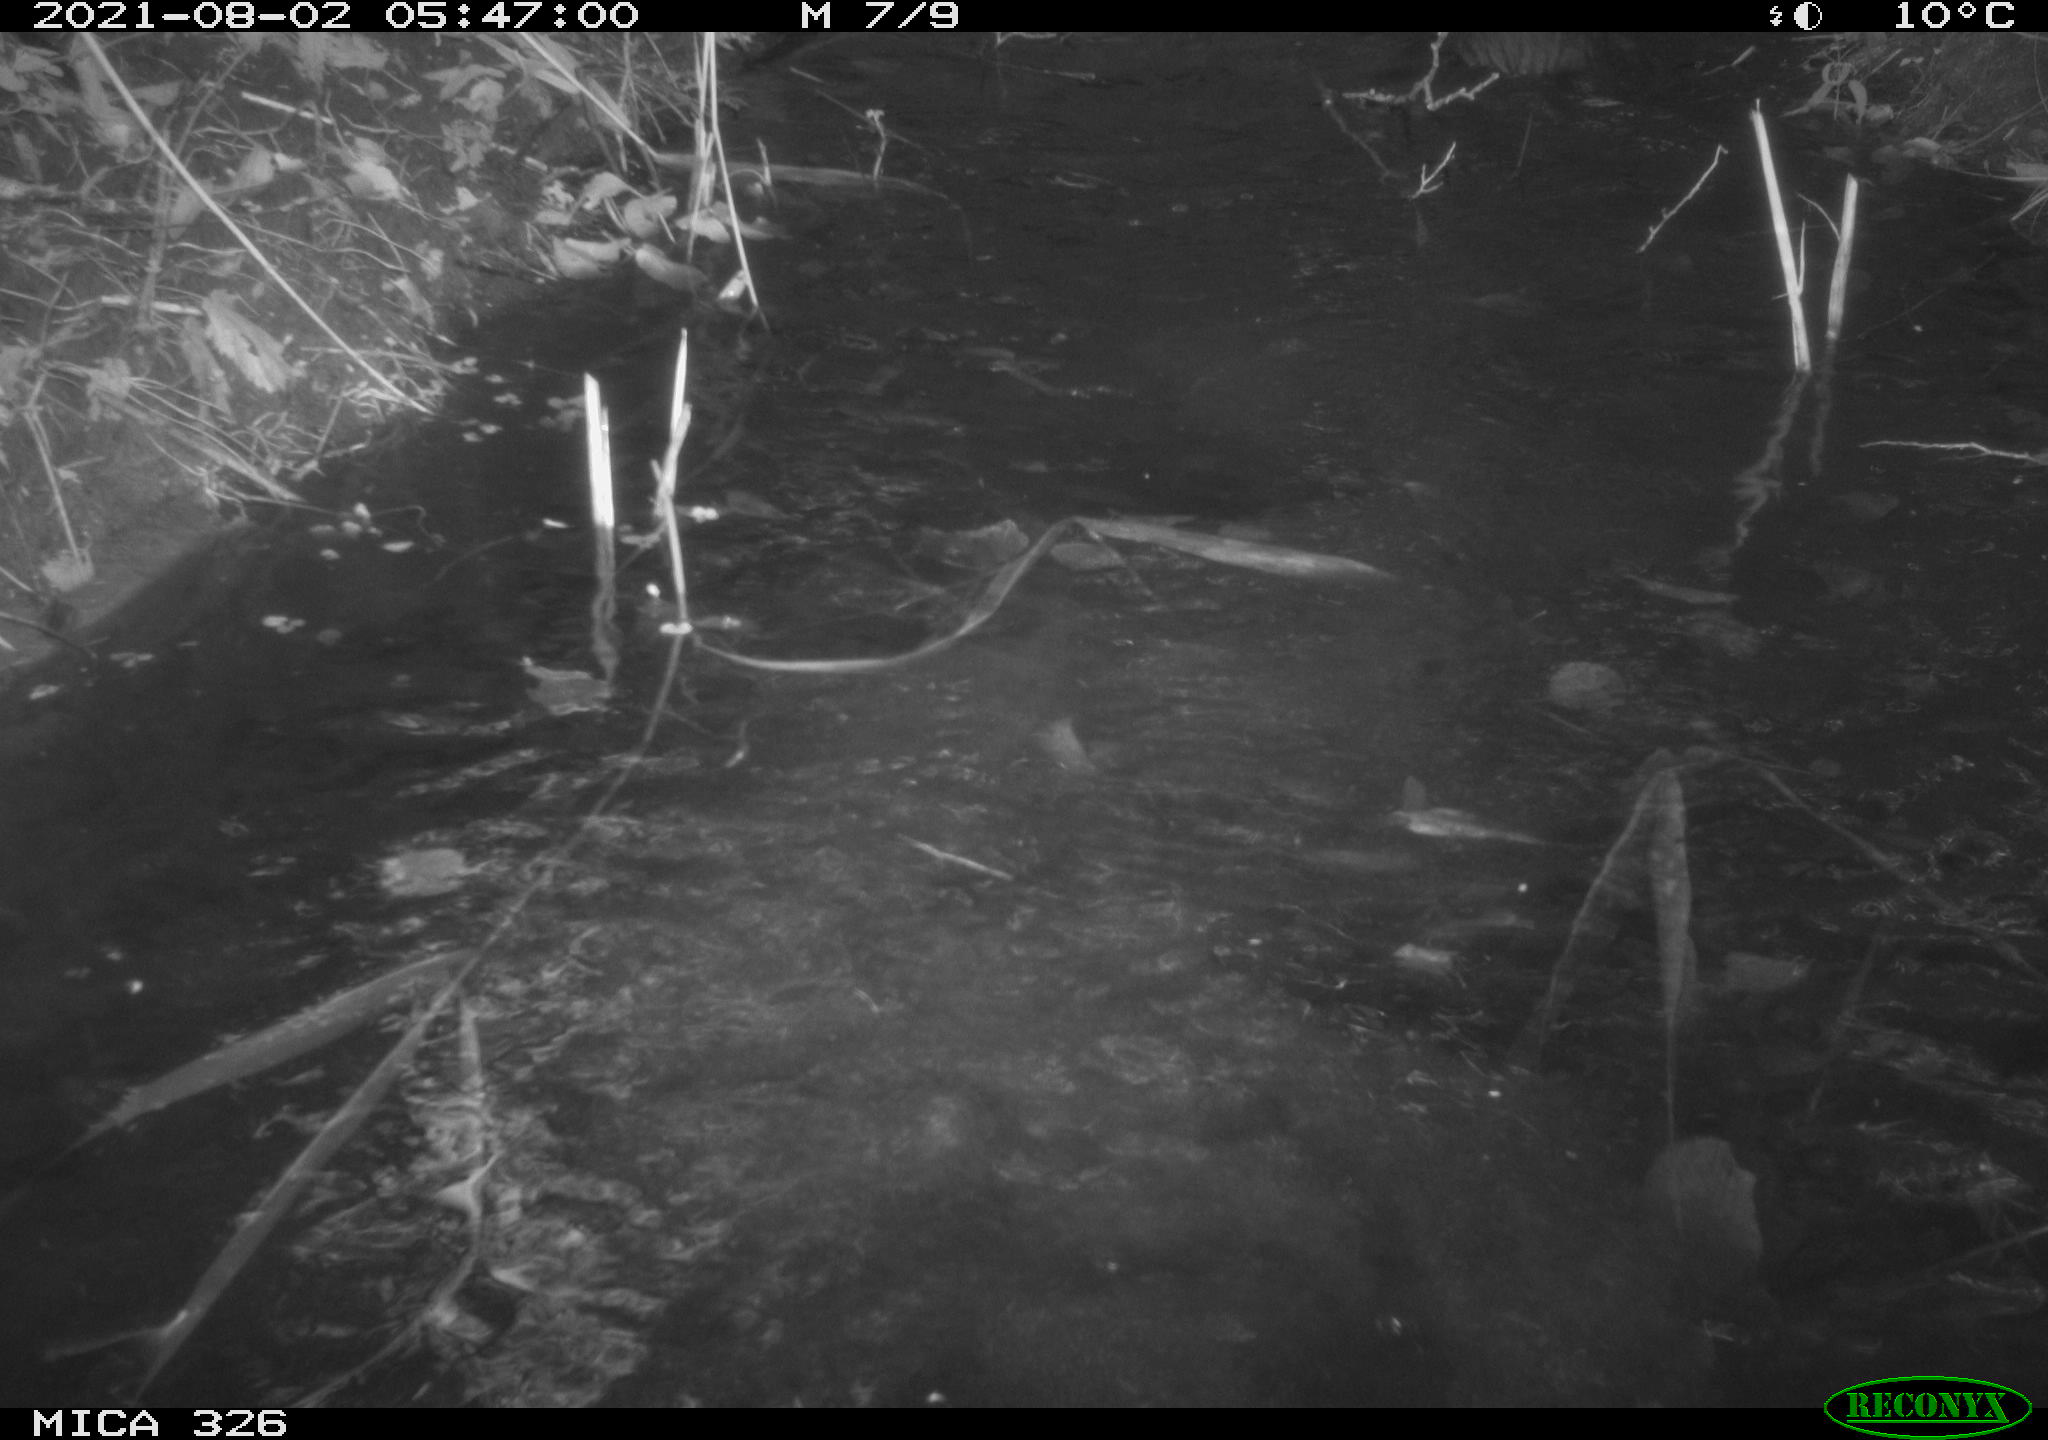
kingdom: Animalia
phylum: Chordata
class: Mammalia
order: Rodentia
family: Myocastoridae
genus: Myocastor
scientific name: Myocastor coypus
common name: Coypu
